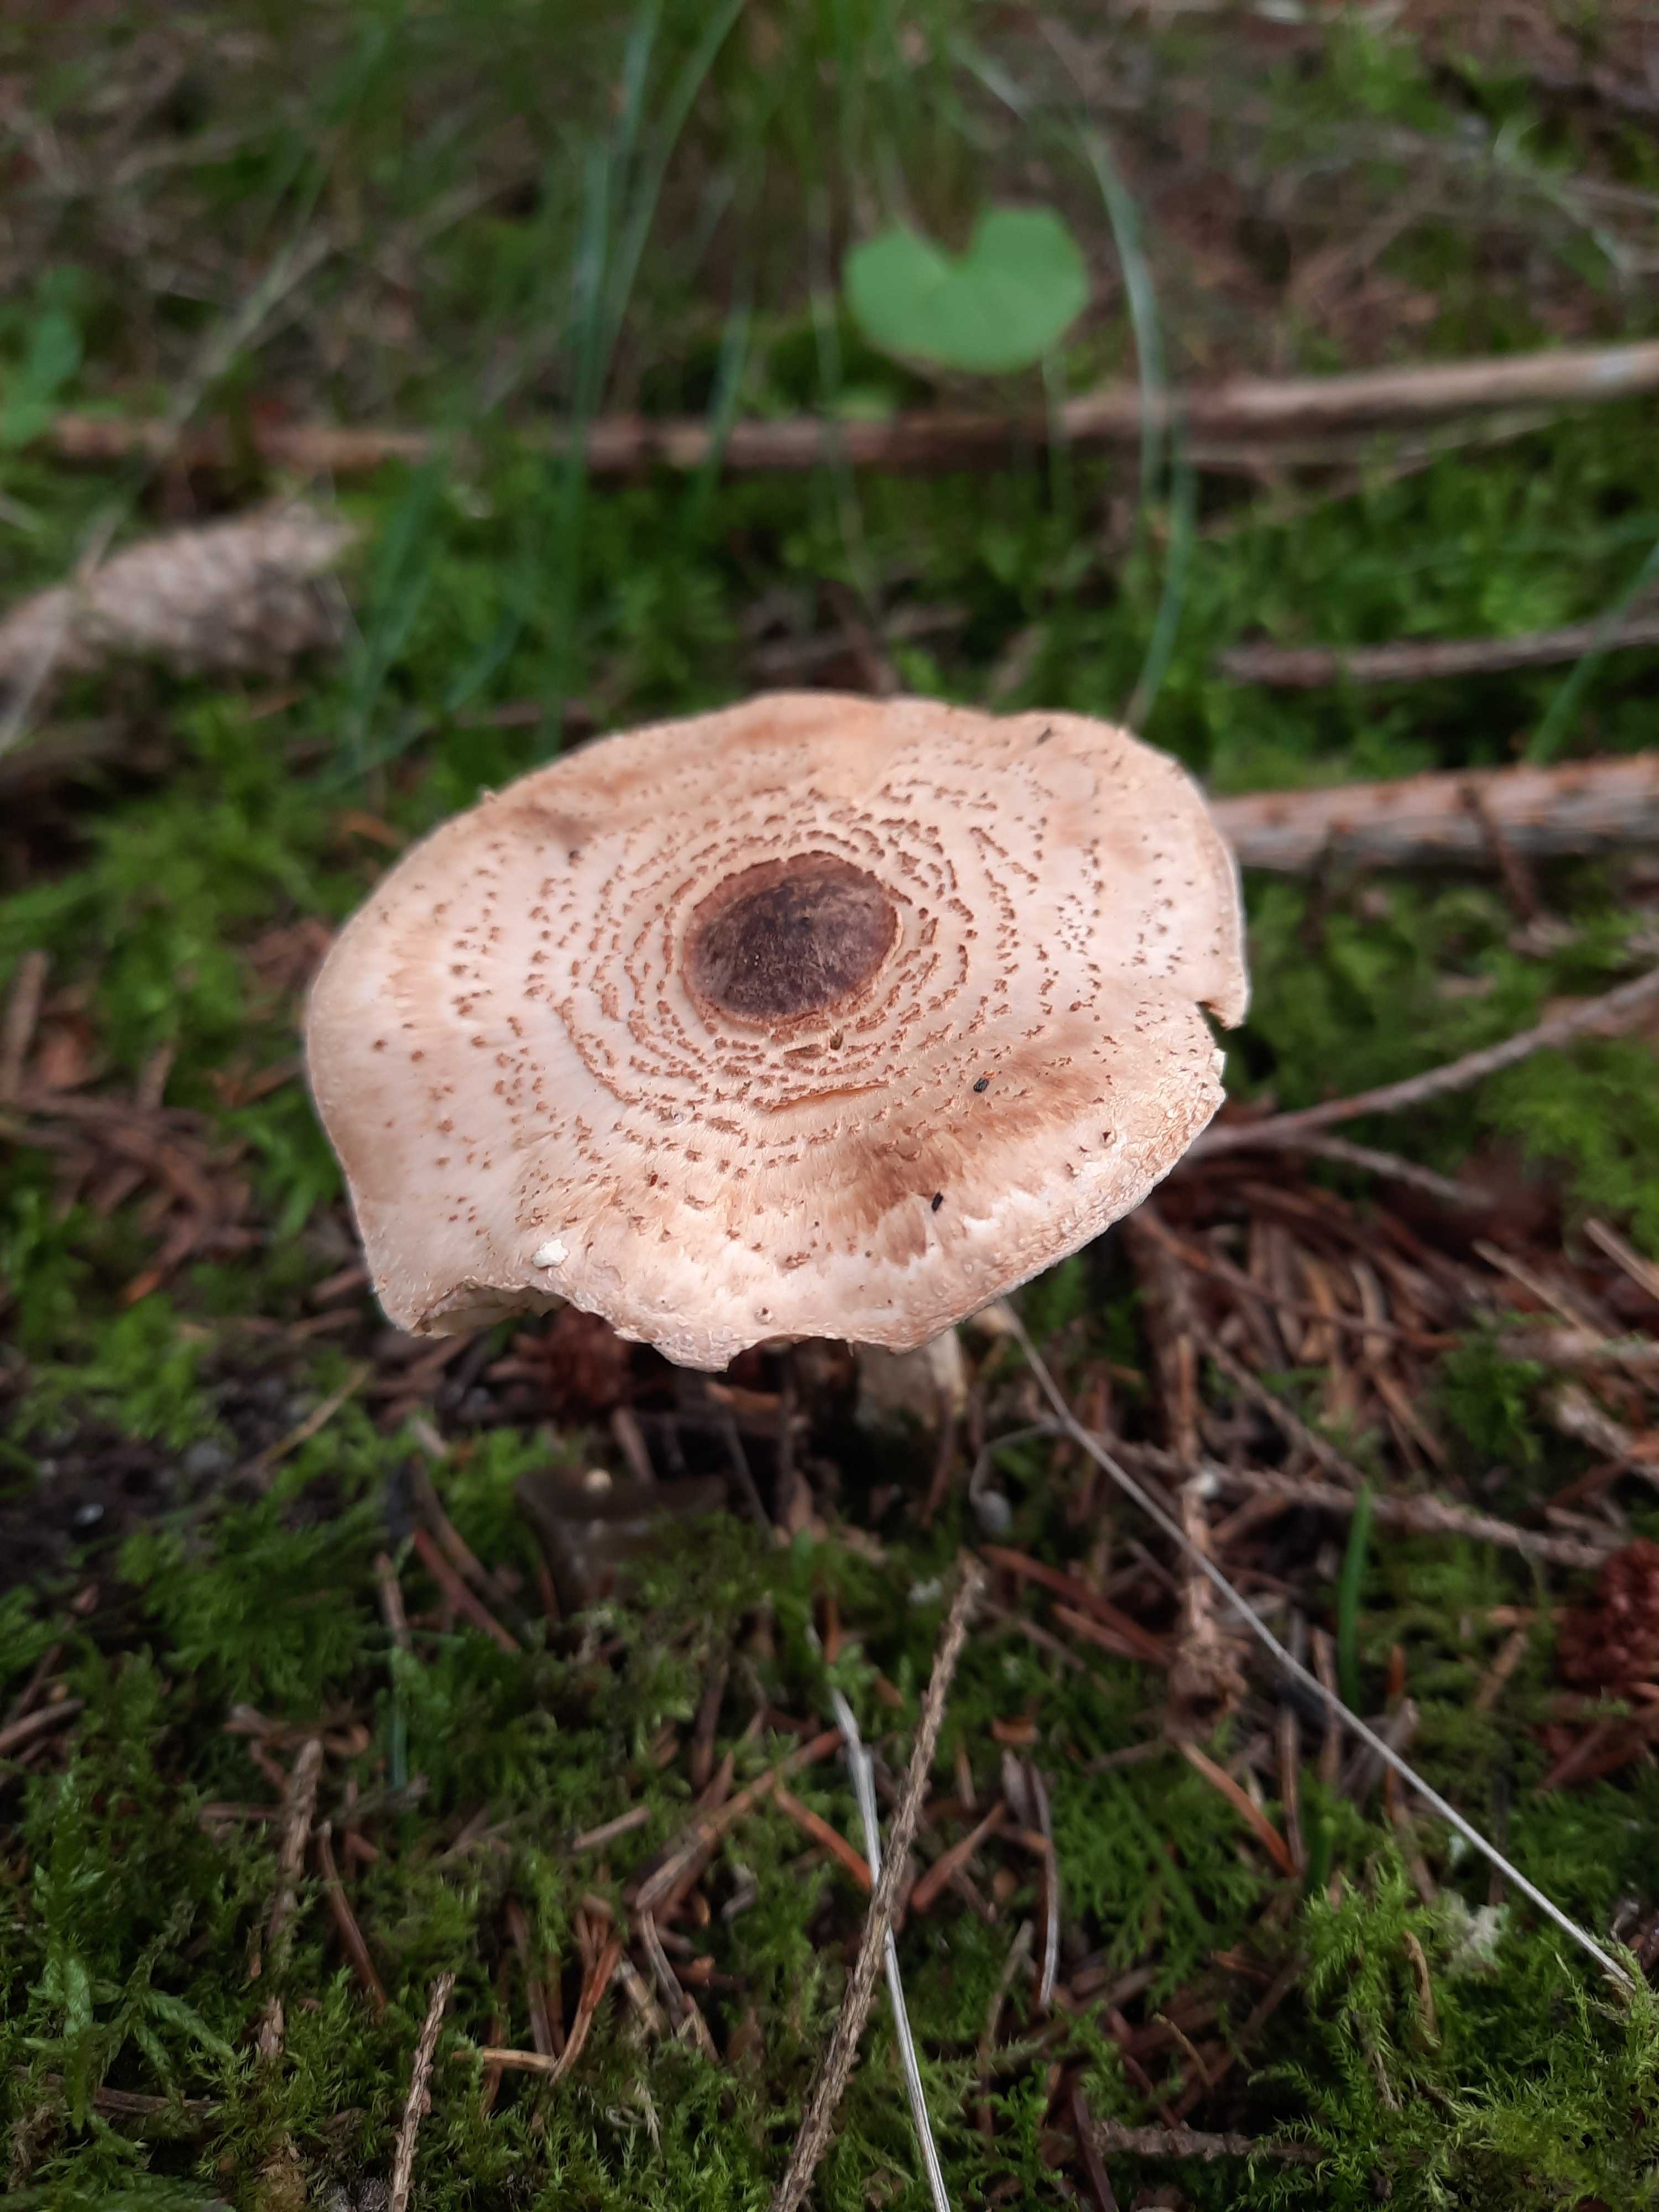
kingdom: Fungi
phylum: Basidiomycota
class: Agaricomycetes
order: Agaricales
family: Agaricaceae
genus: Lepiota
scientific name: Lepiota
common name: parasolhat
